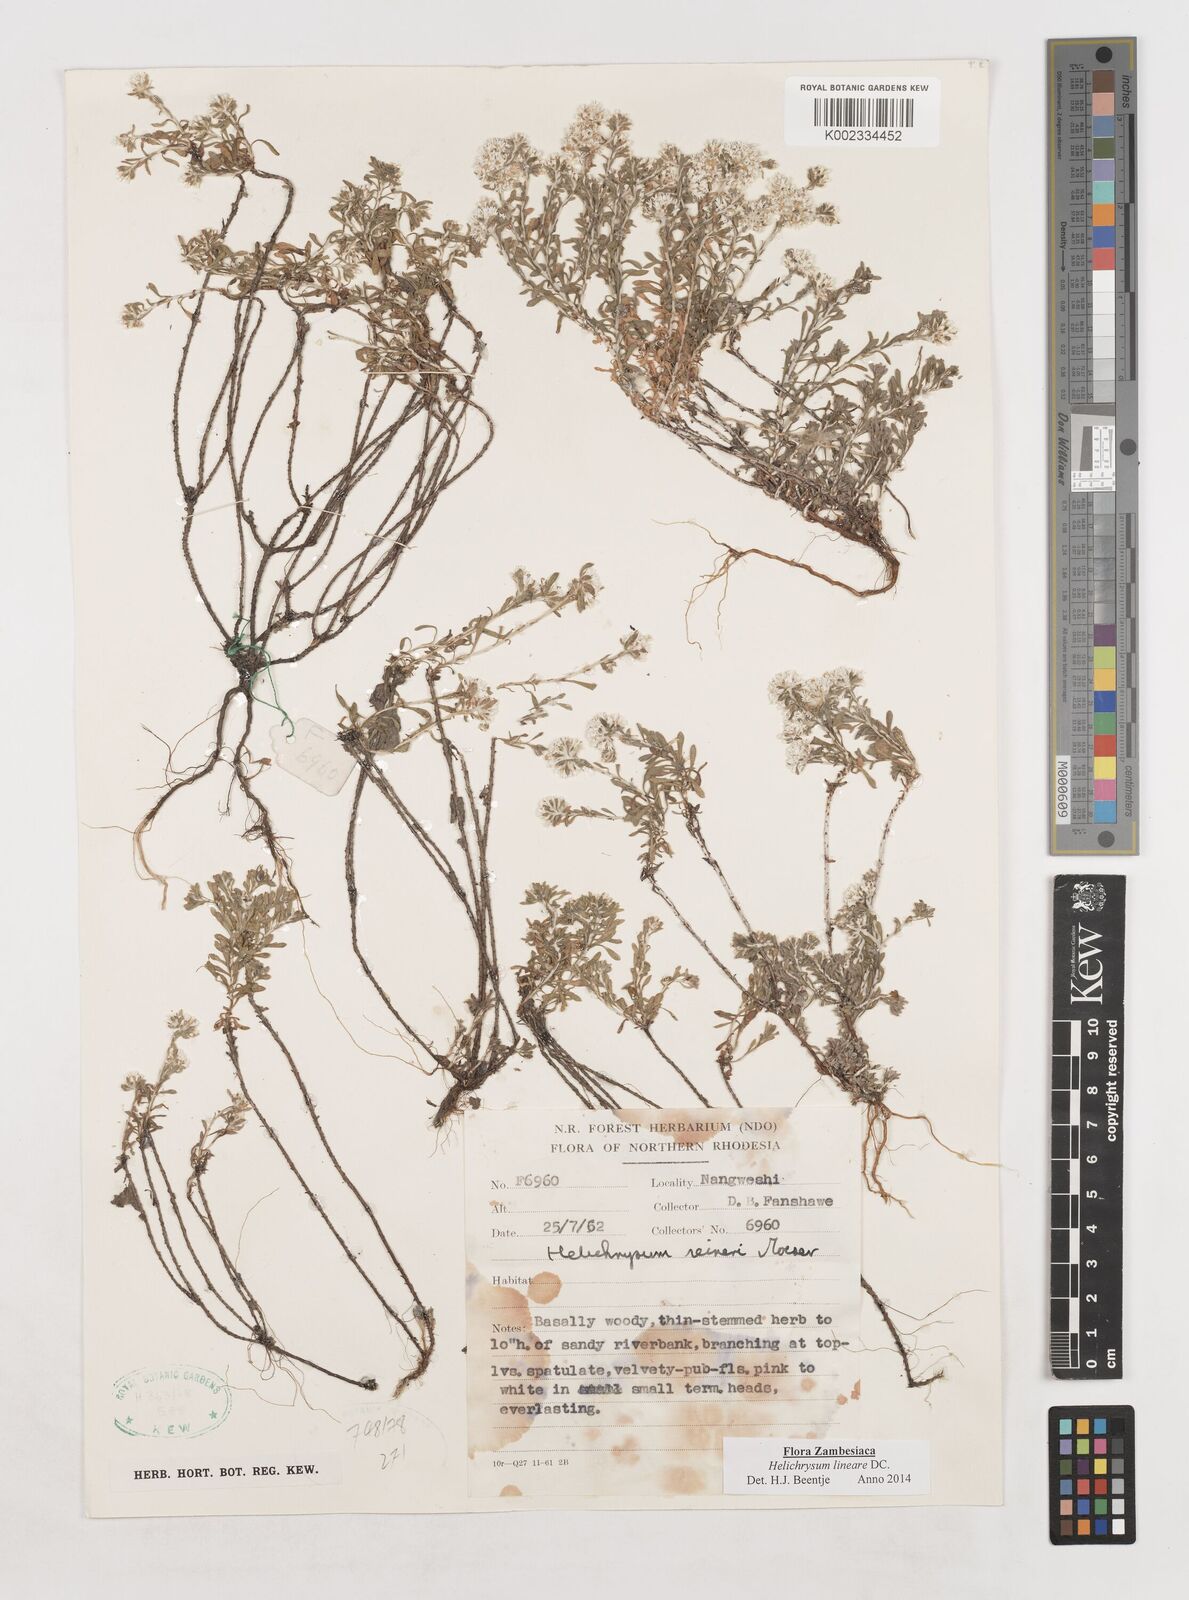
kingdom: Plantae
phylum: Tracheophyta
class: Magnoliopsida
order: Asterales
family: Asteraceae
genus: Helichrysum
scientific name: Helichrysum lineare
